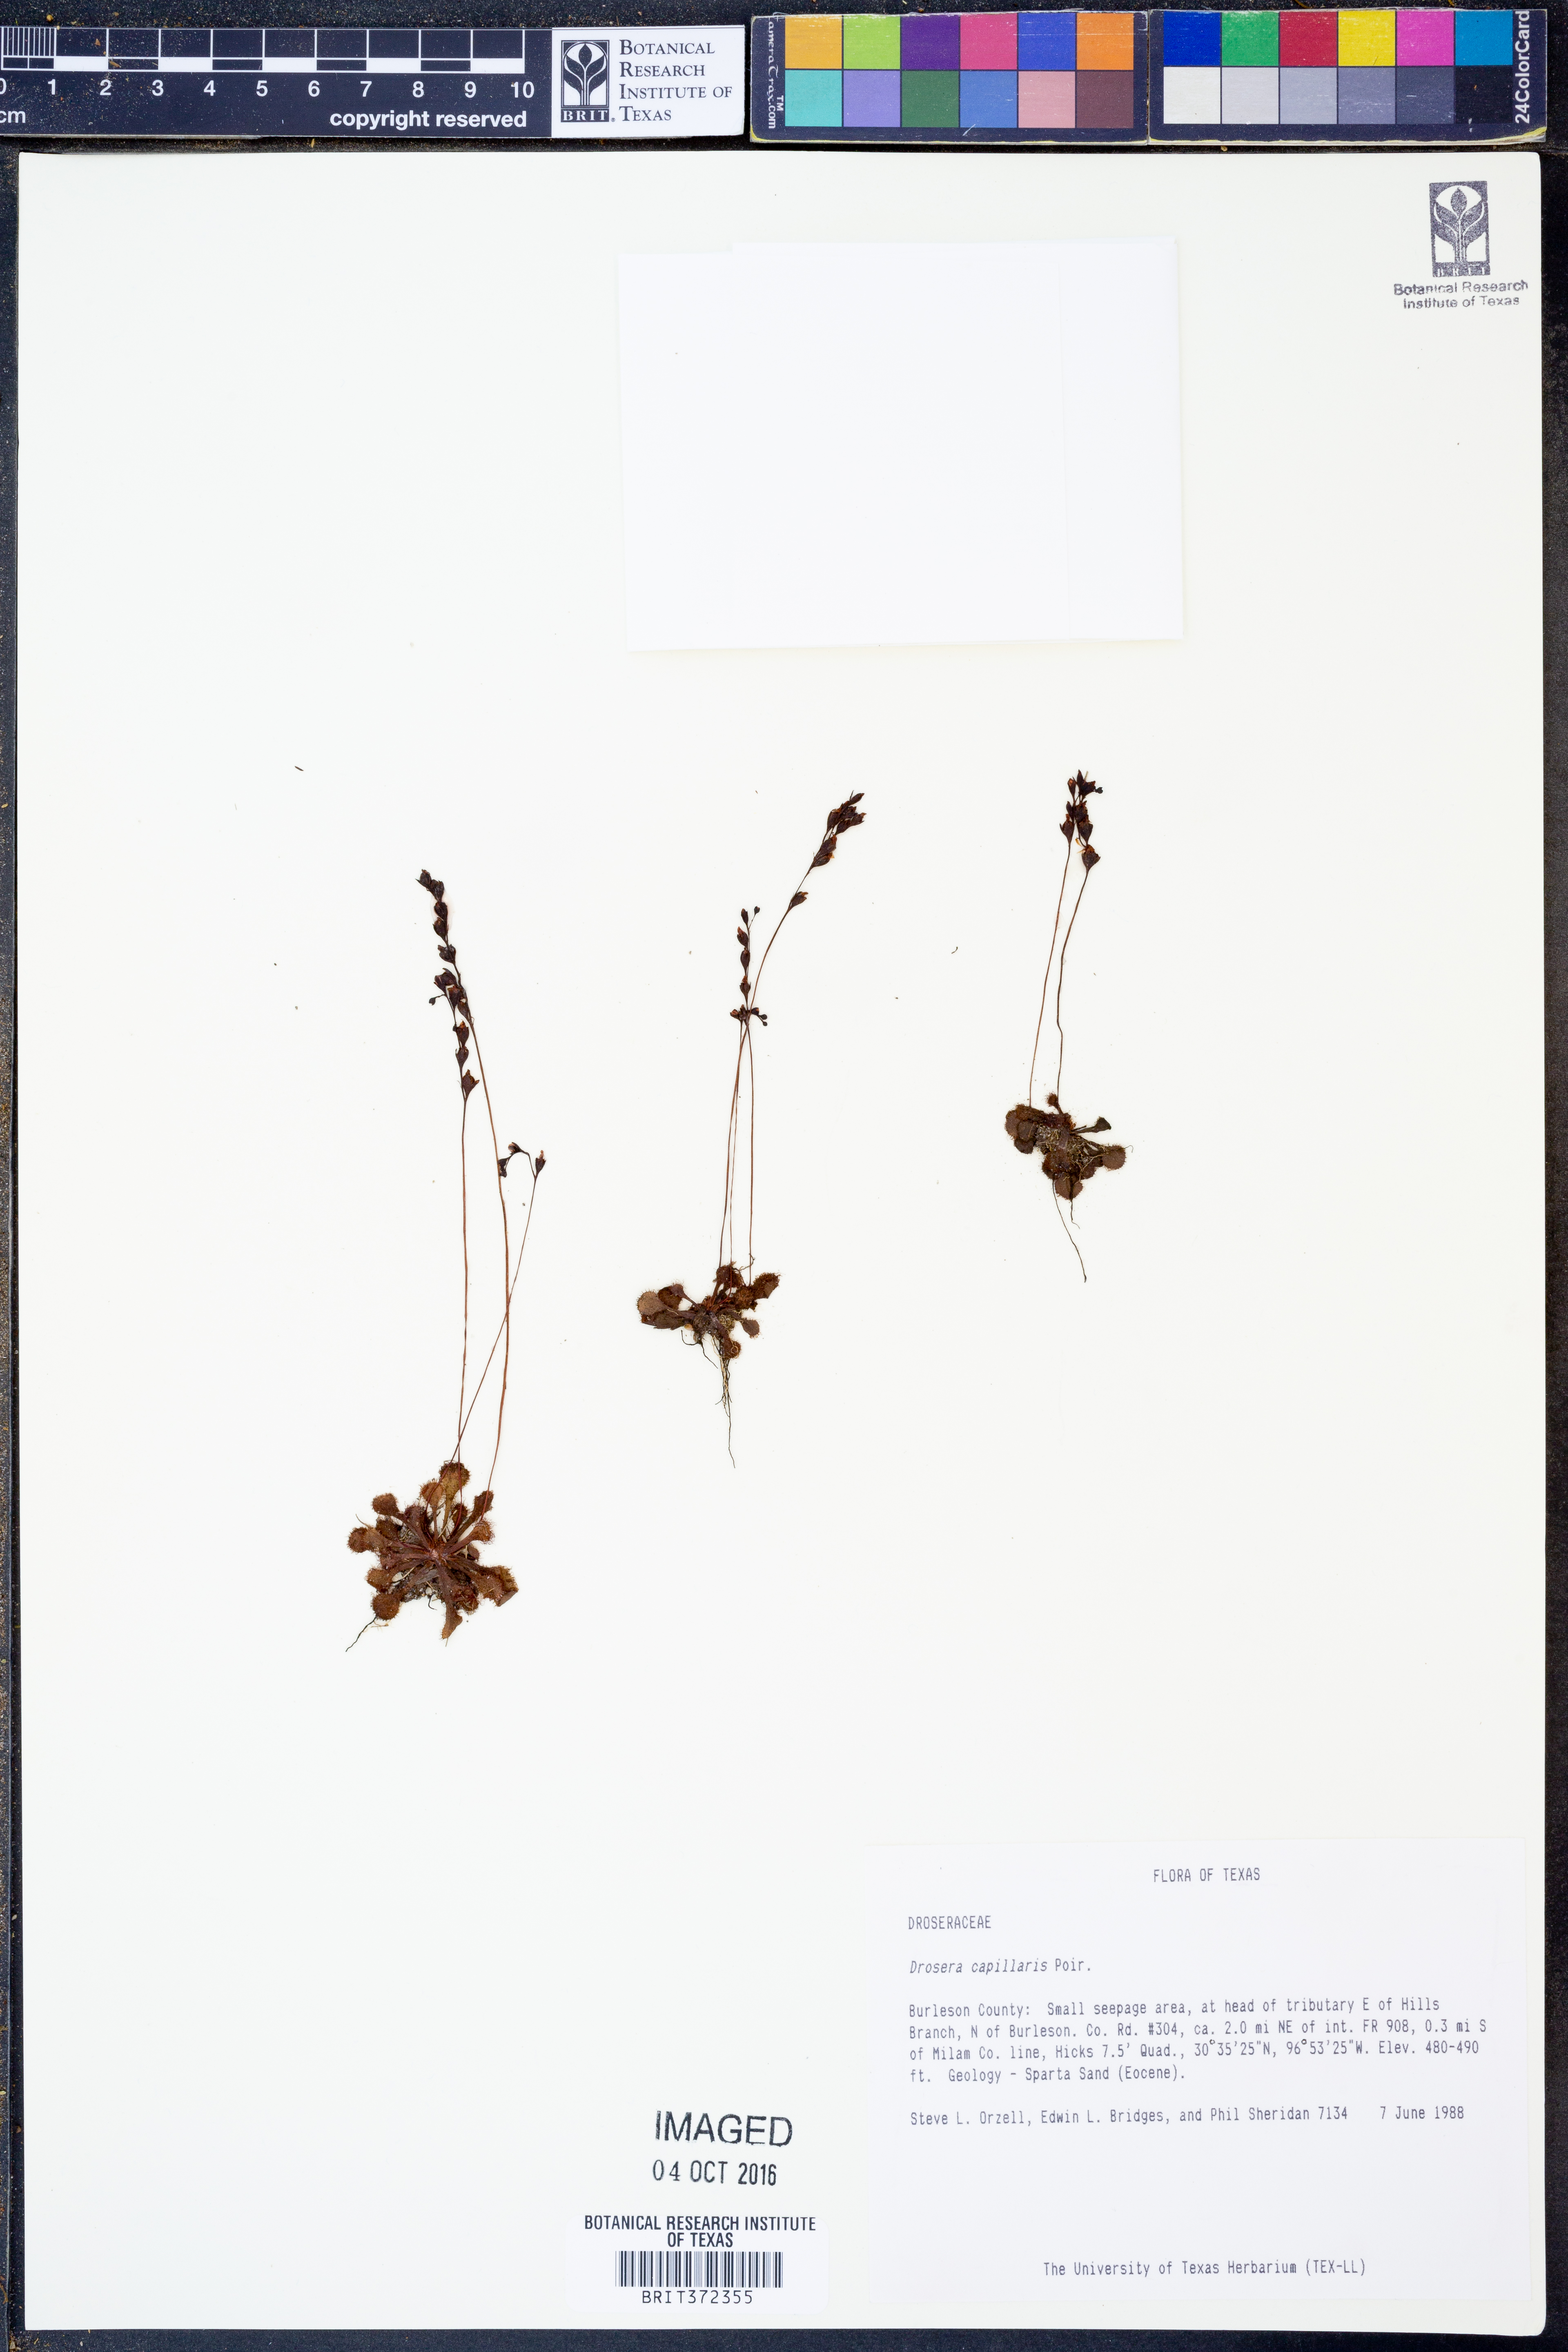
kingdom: Plantae
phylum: Tracheophyta
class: Magnoliopsida
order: Caryophyllales
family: Droseraceae
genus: Drosera
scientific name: Drosera capillaris
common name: Pink sundew
